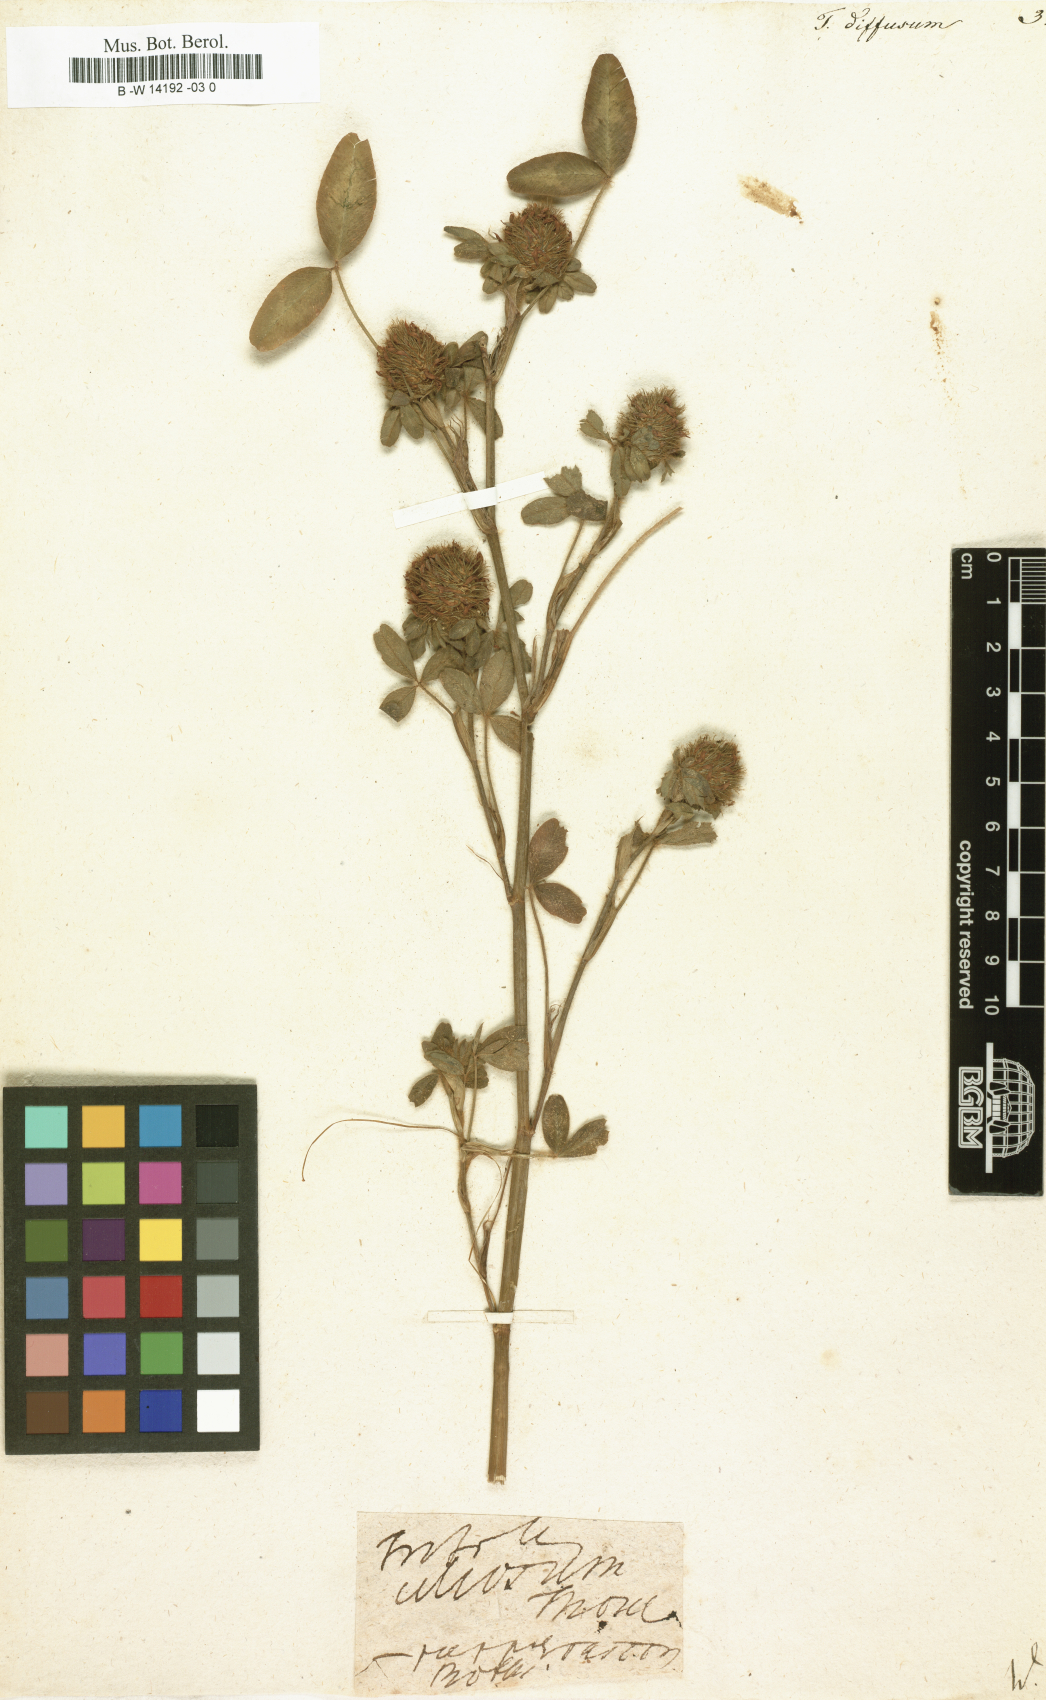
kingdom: Plantae
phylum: Tracheophyta
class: Magnoliopsida
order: Fabales
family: Fabaceae
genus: Trifolium
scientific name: Trifolium diffusum
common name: Diffuse clover
